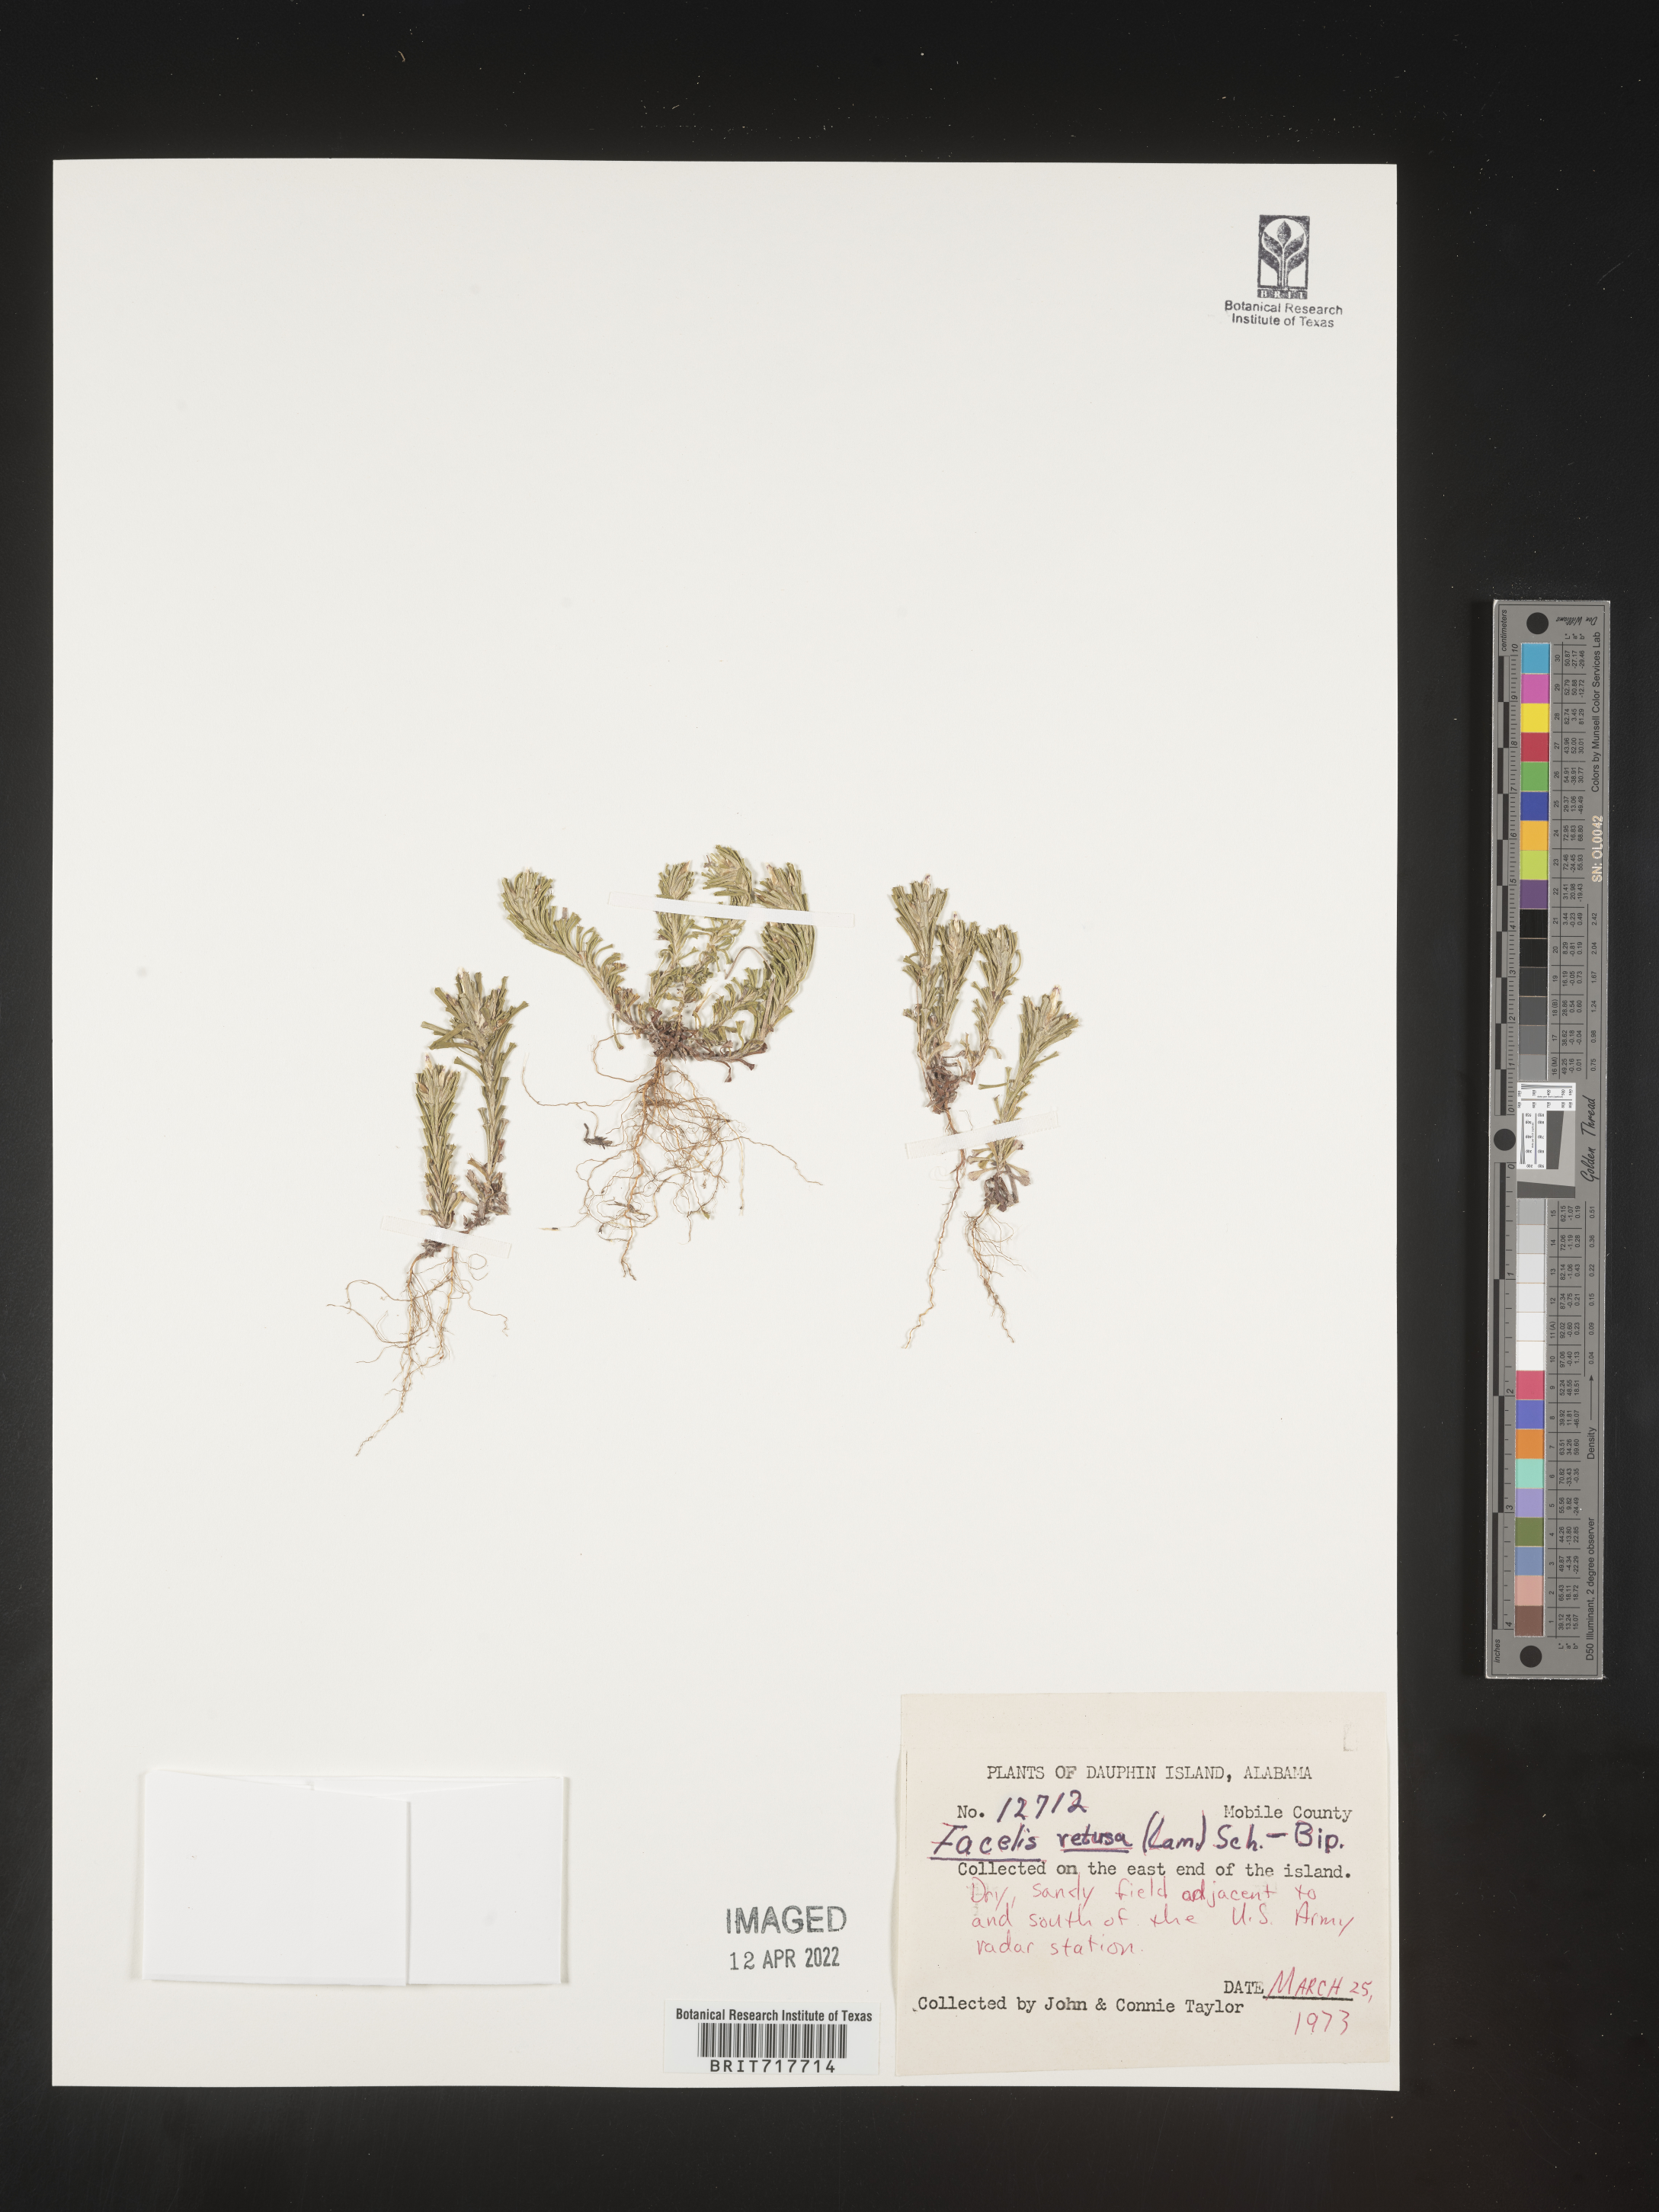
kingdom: Plantae
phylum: Tracheophyta
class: Magnoliopsida
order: Asterales
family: Asteraceae
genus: Facelis
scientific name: Facelis retusa
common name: Annual trampweed
